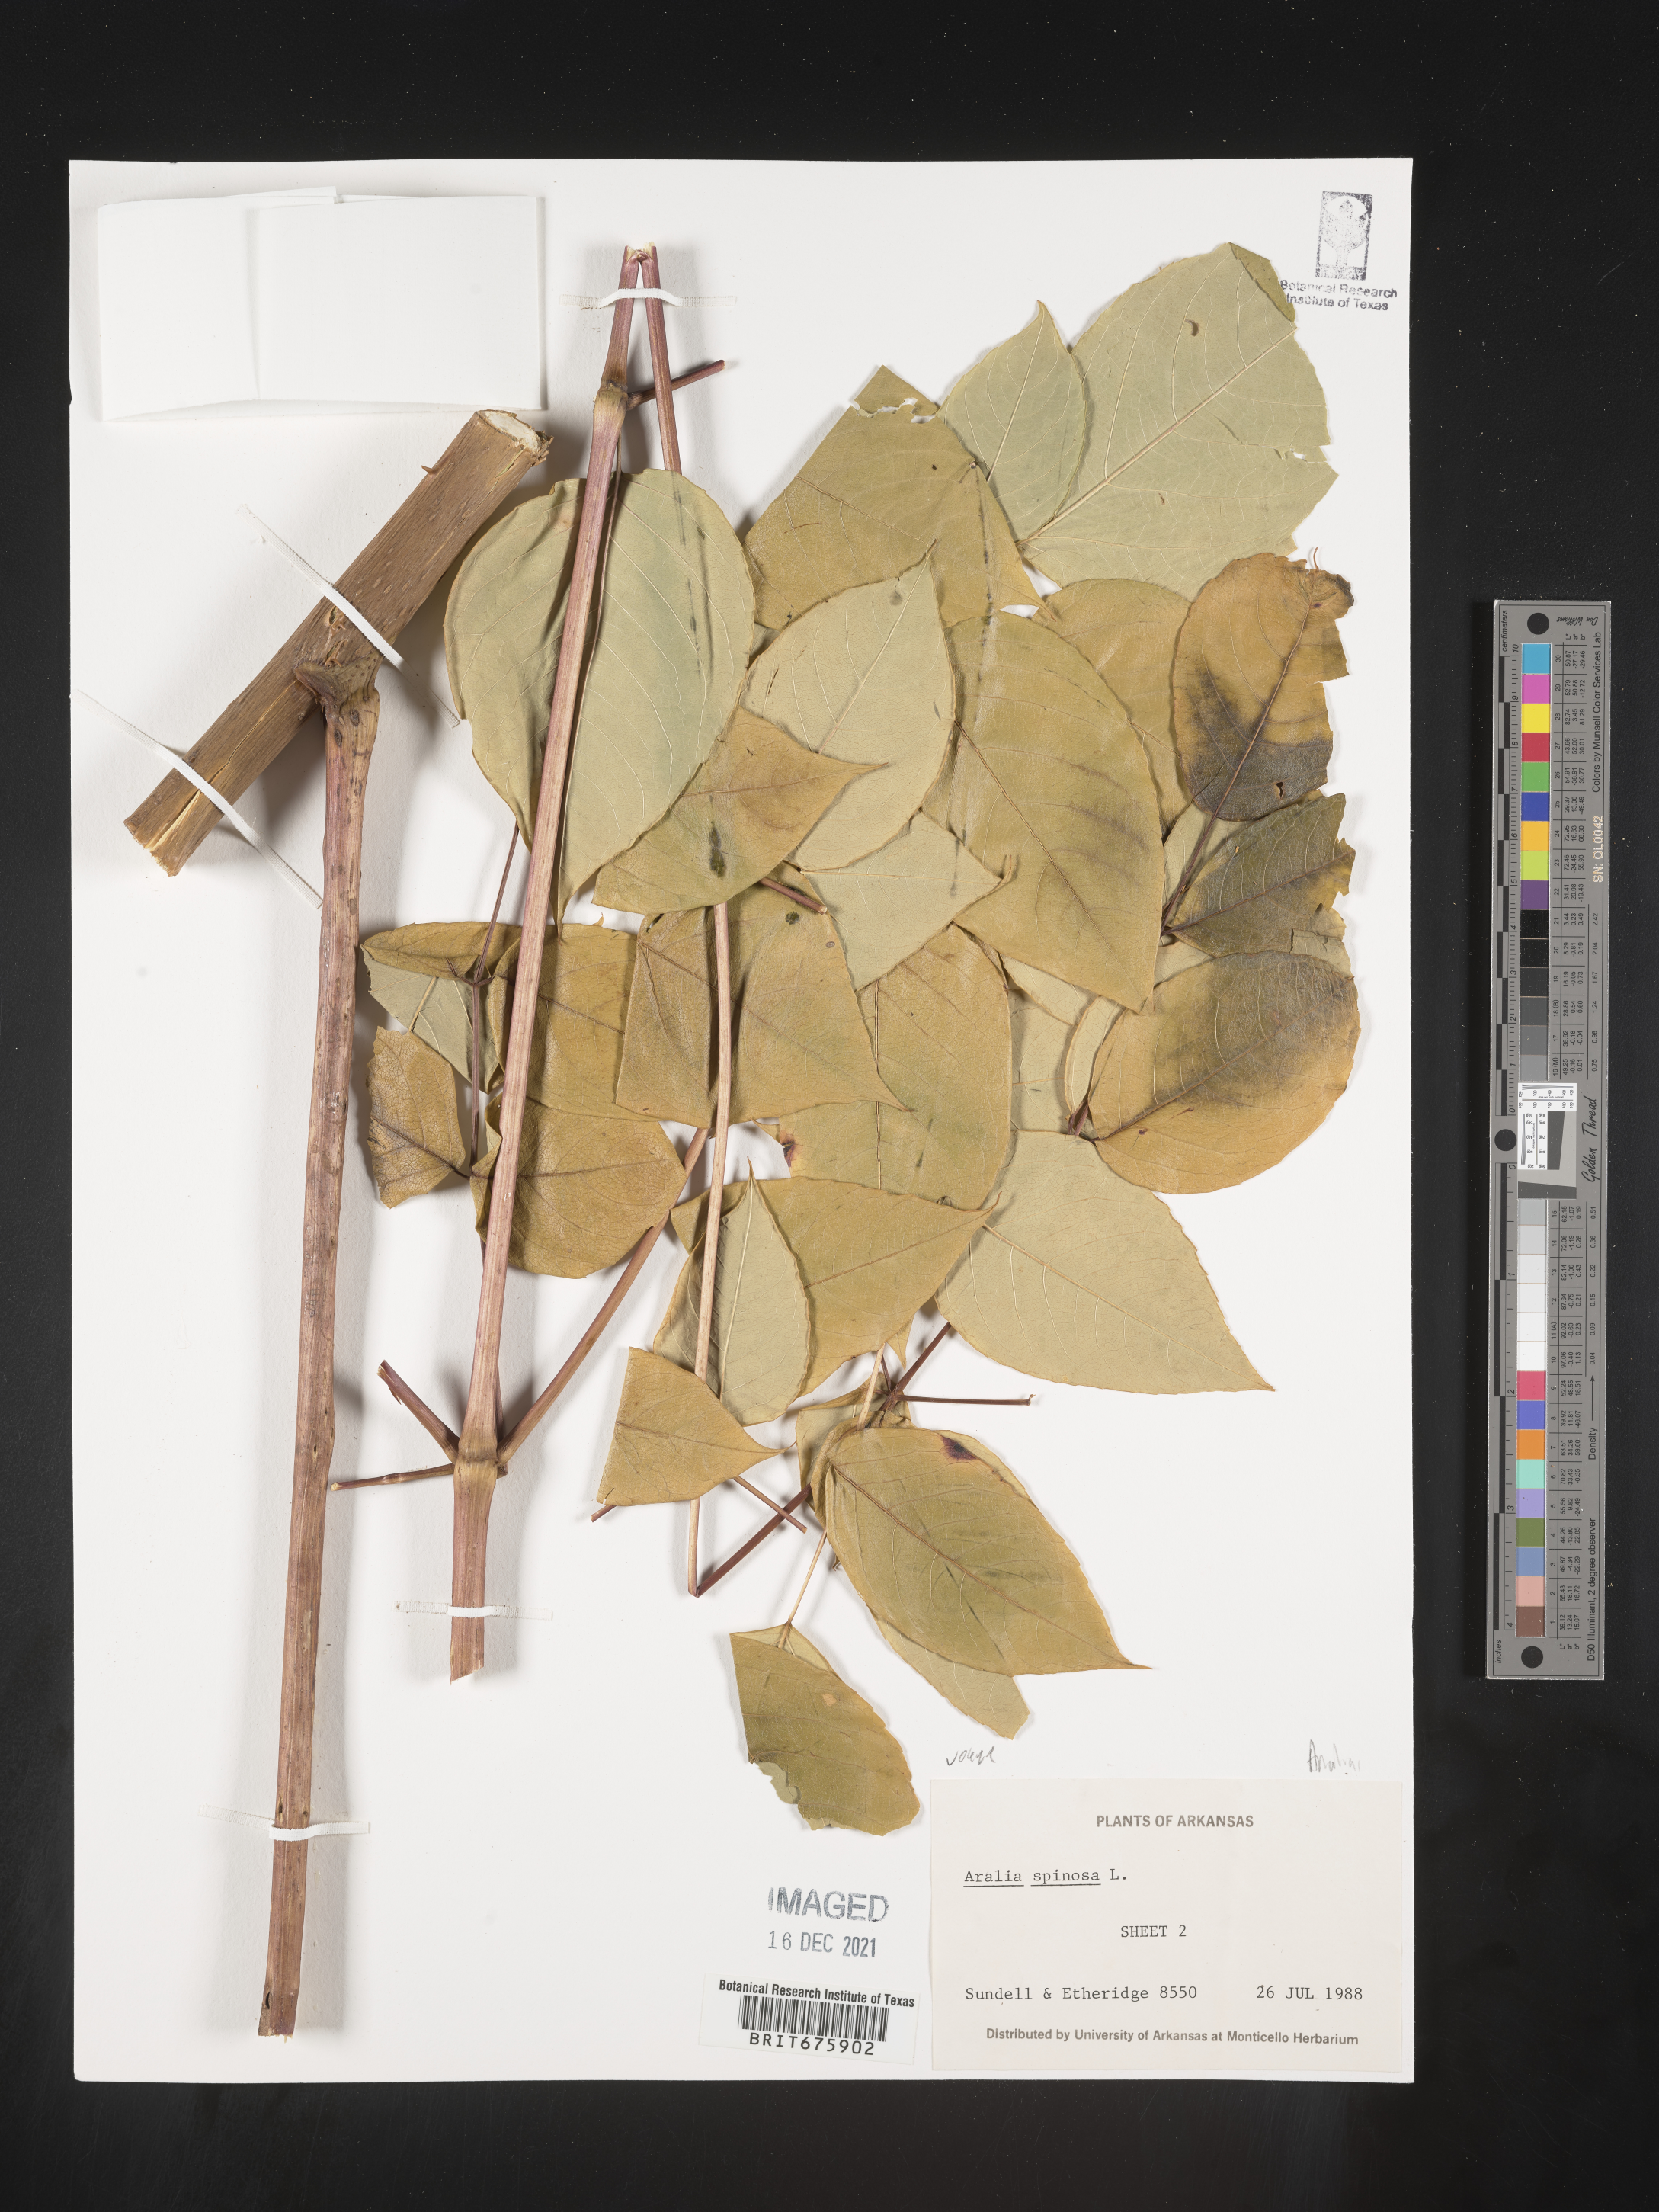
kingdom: Plantae
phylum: Tracheophyta
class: Magnoliopsida
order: Apiales
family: Araliaceae
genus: Aralia
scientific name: Aralia spinosa
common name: Hercules'-club
